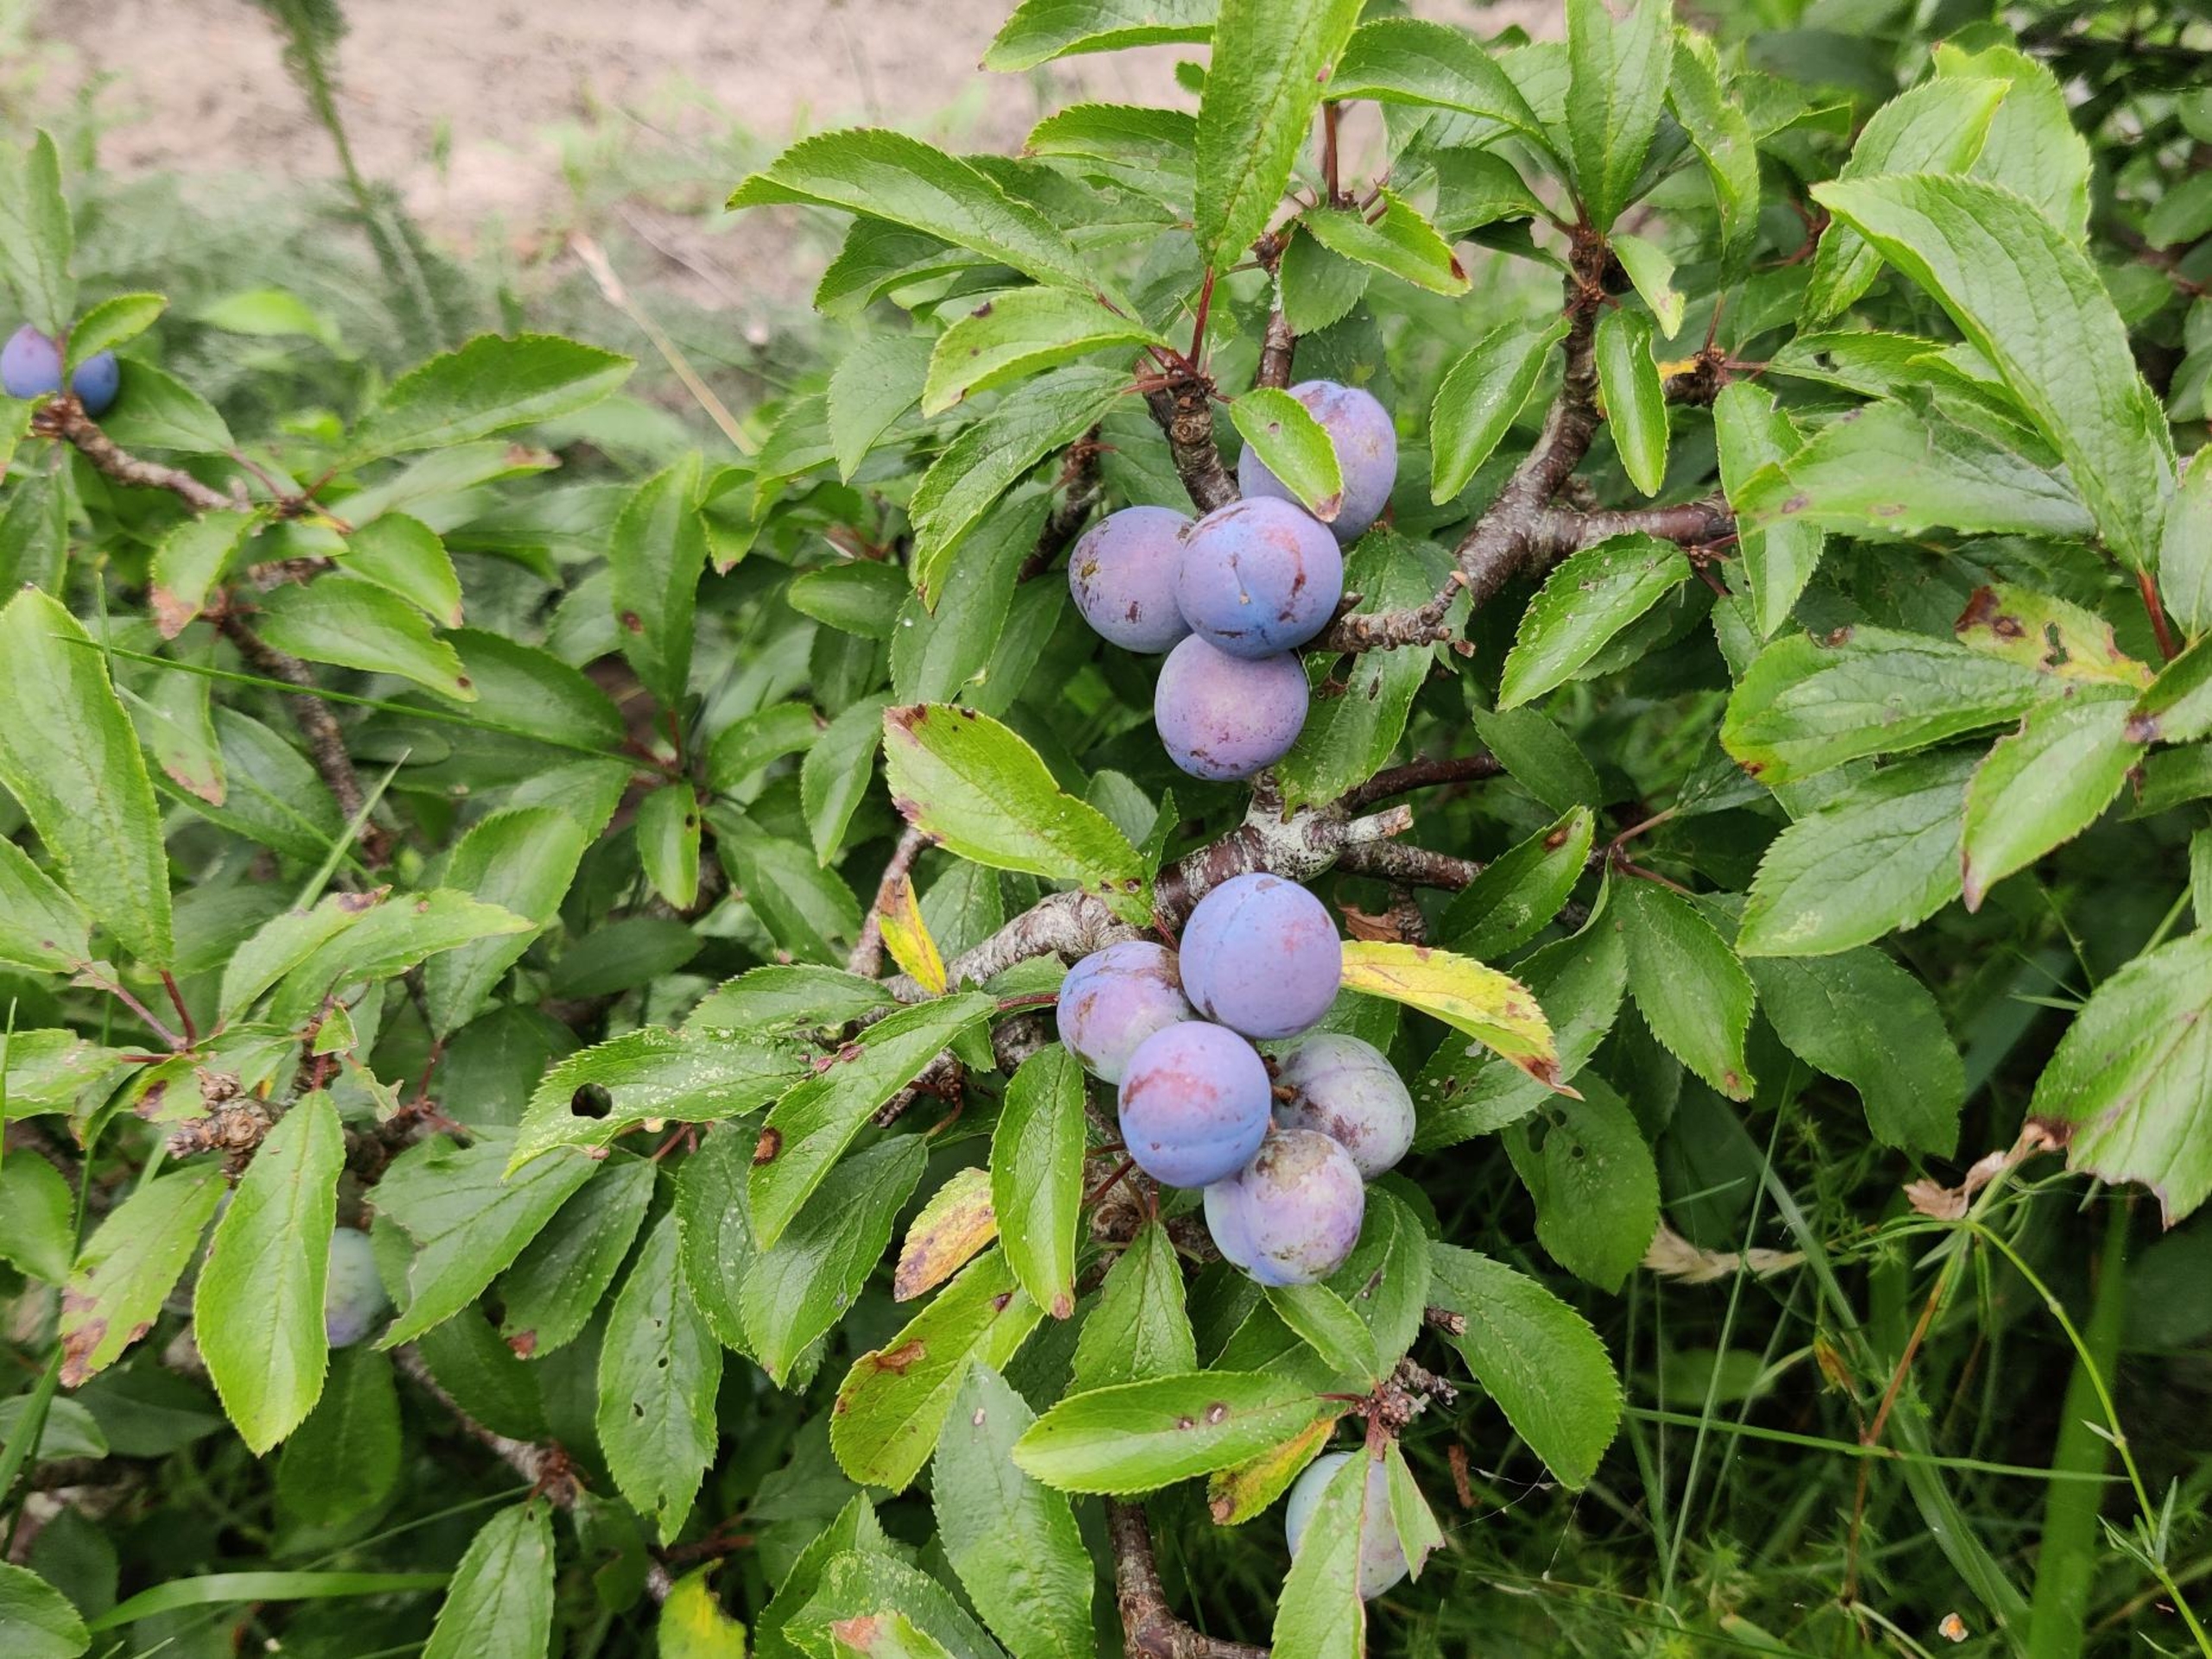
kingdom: Plantae
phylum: Tracheophyta
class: Magnoliopsida
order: Rosales
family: Rosaceae
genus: Prunus
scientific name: Prunus spinosa
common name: Slåen
